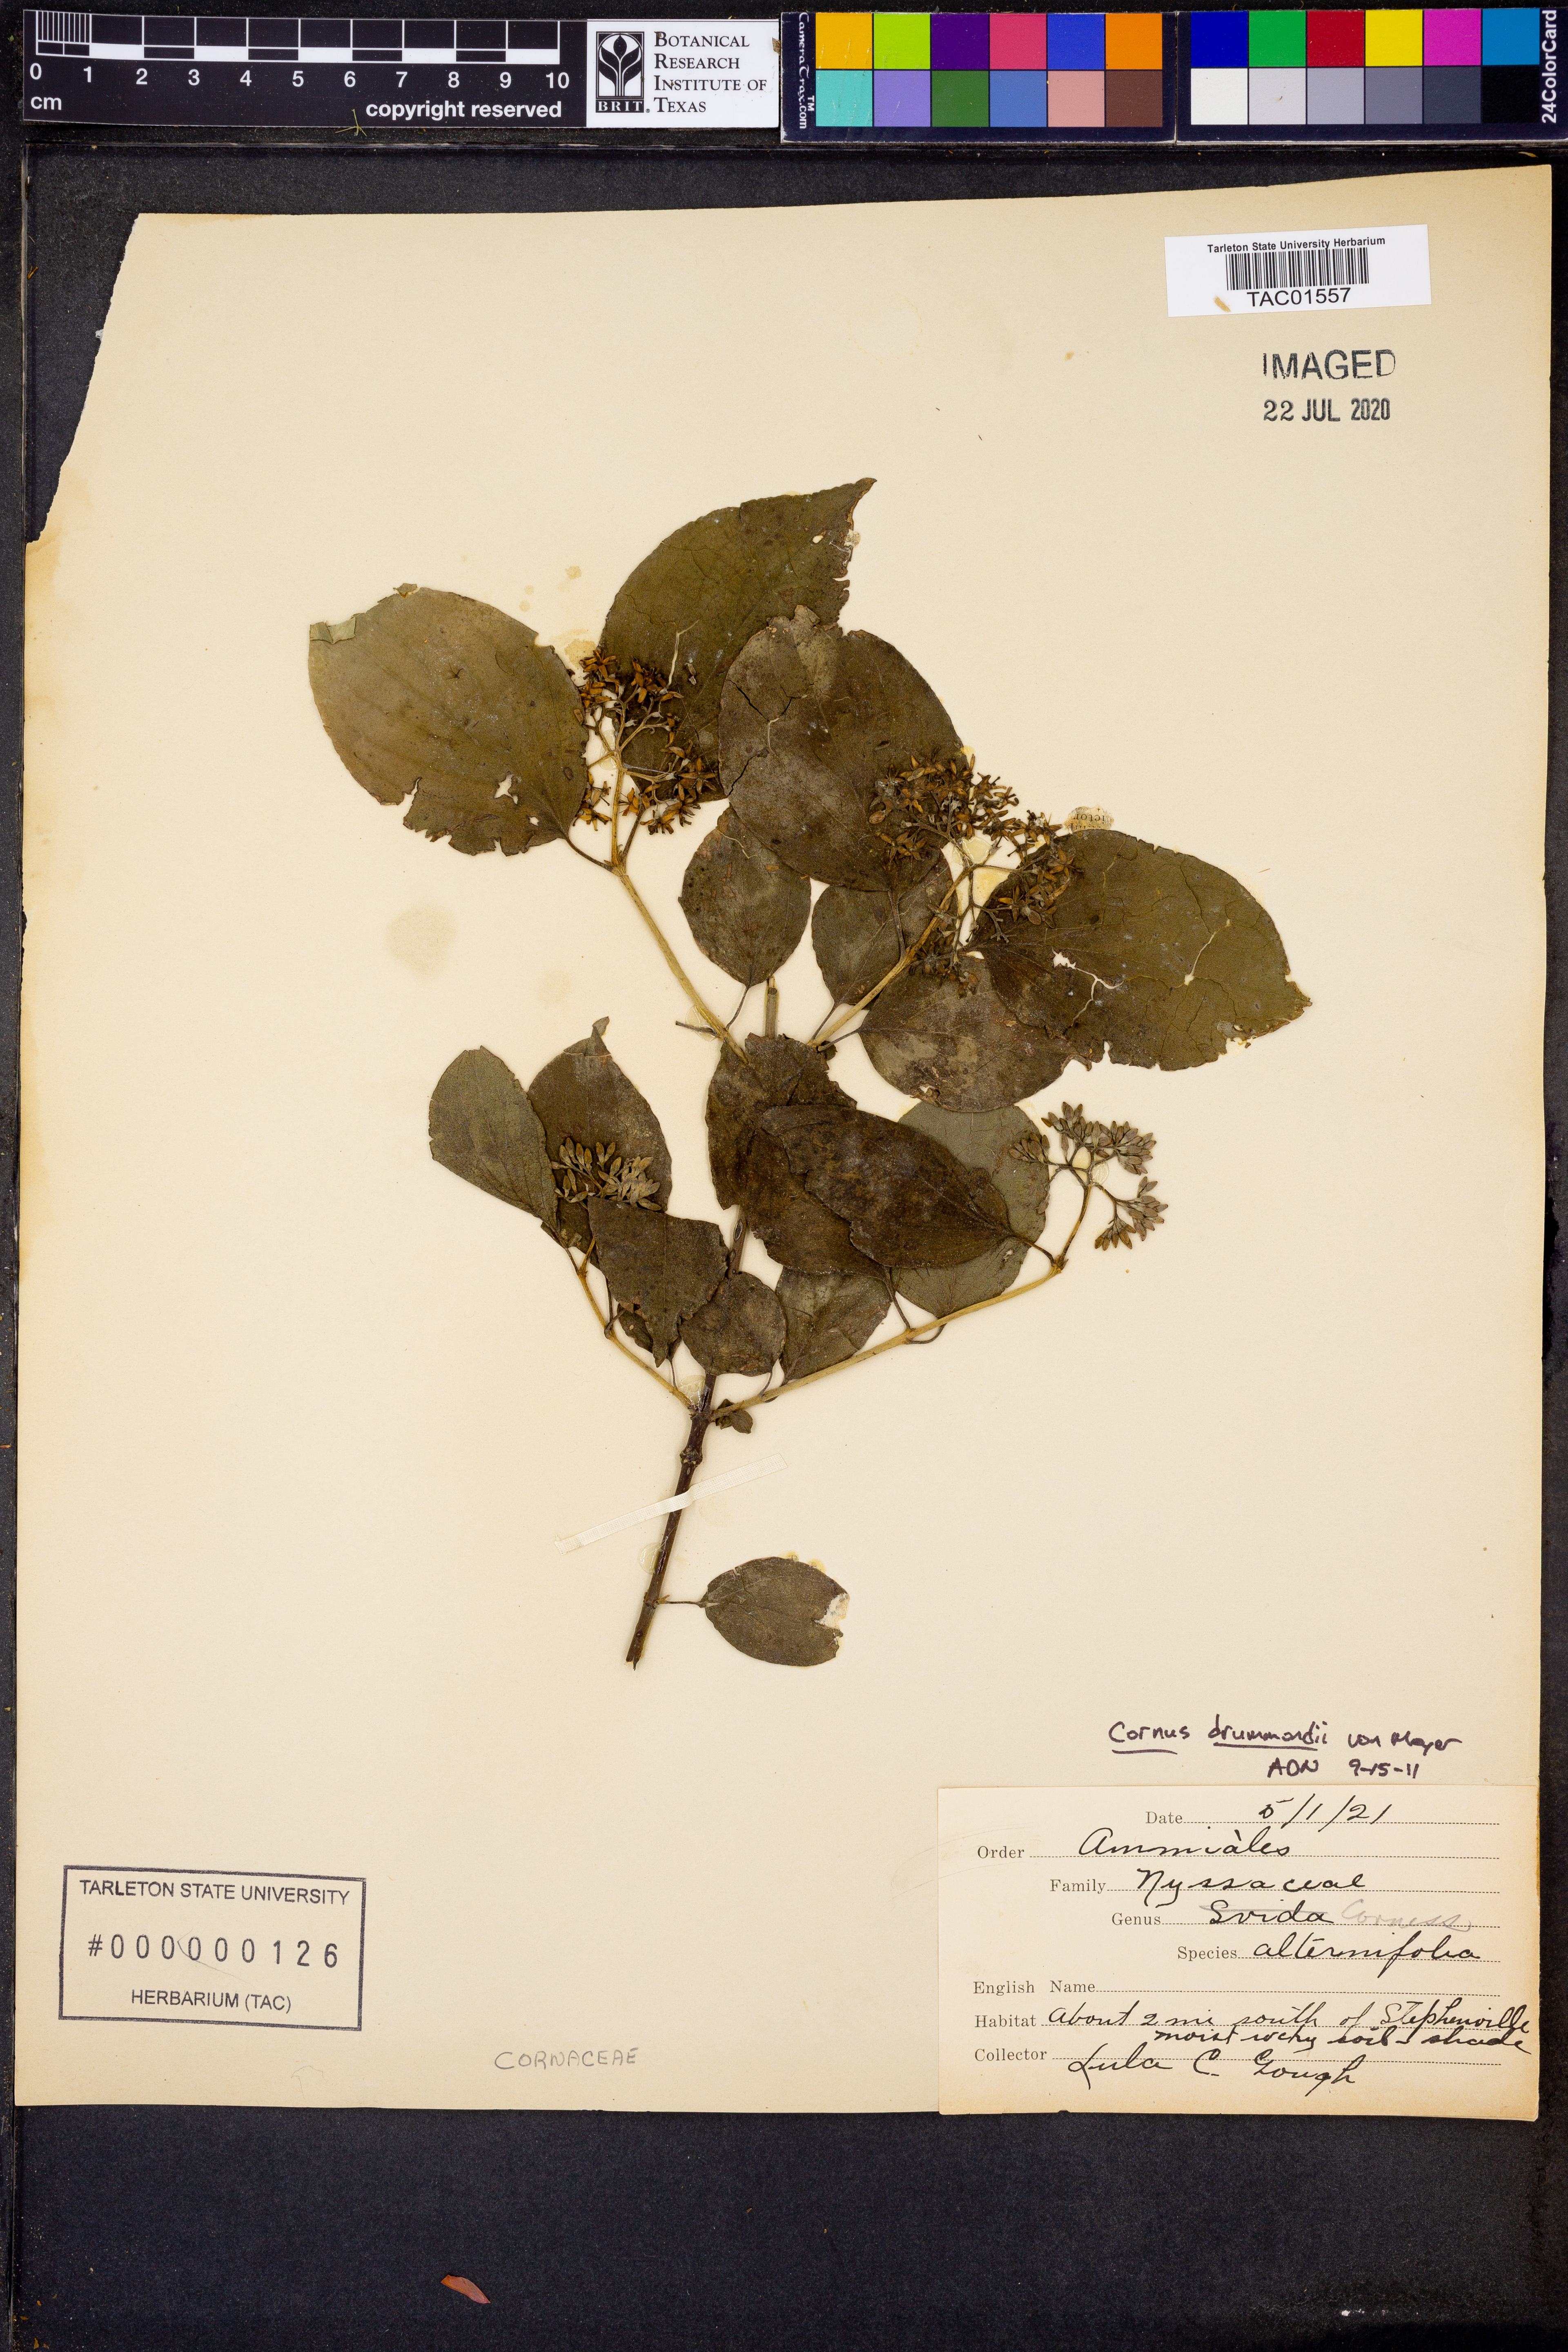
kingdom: Plantae
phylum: Tracheophyta
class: Magnoliopsida
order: Cornales
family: Cornaceae
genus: Cornus
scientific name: Cornus drummondii
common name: Rough-leaf dogwood
